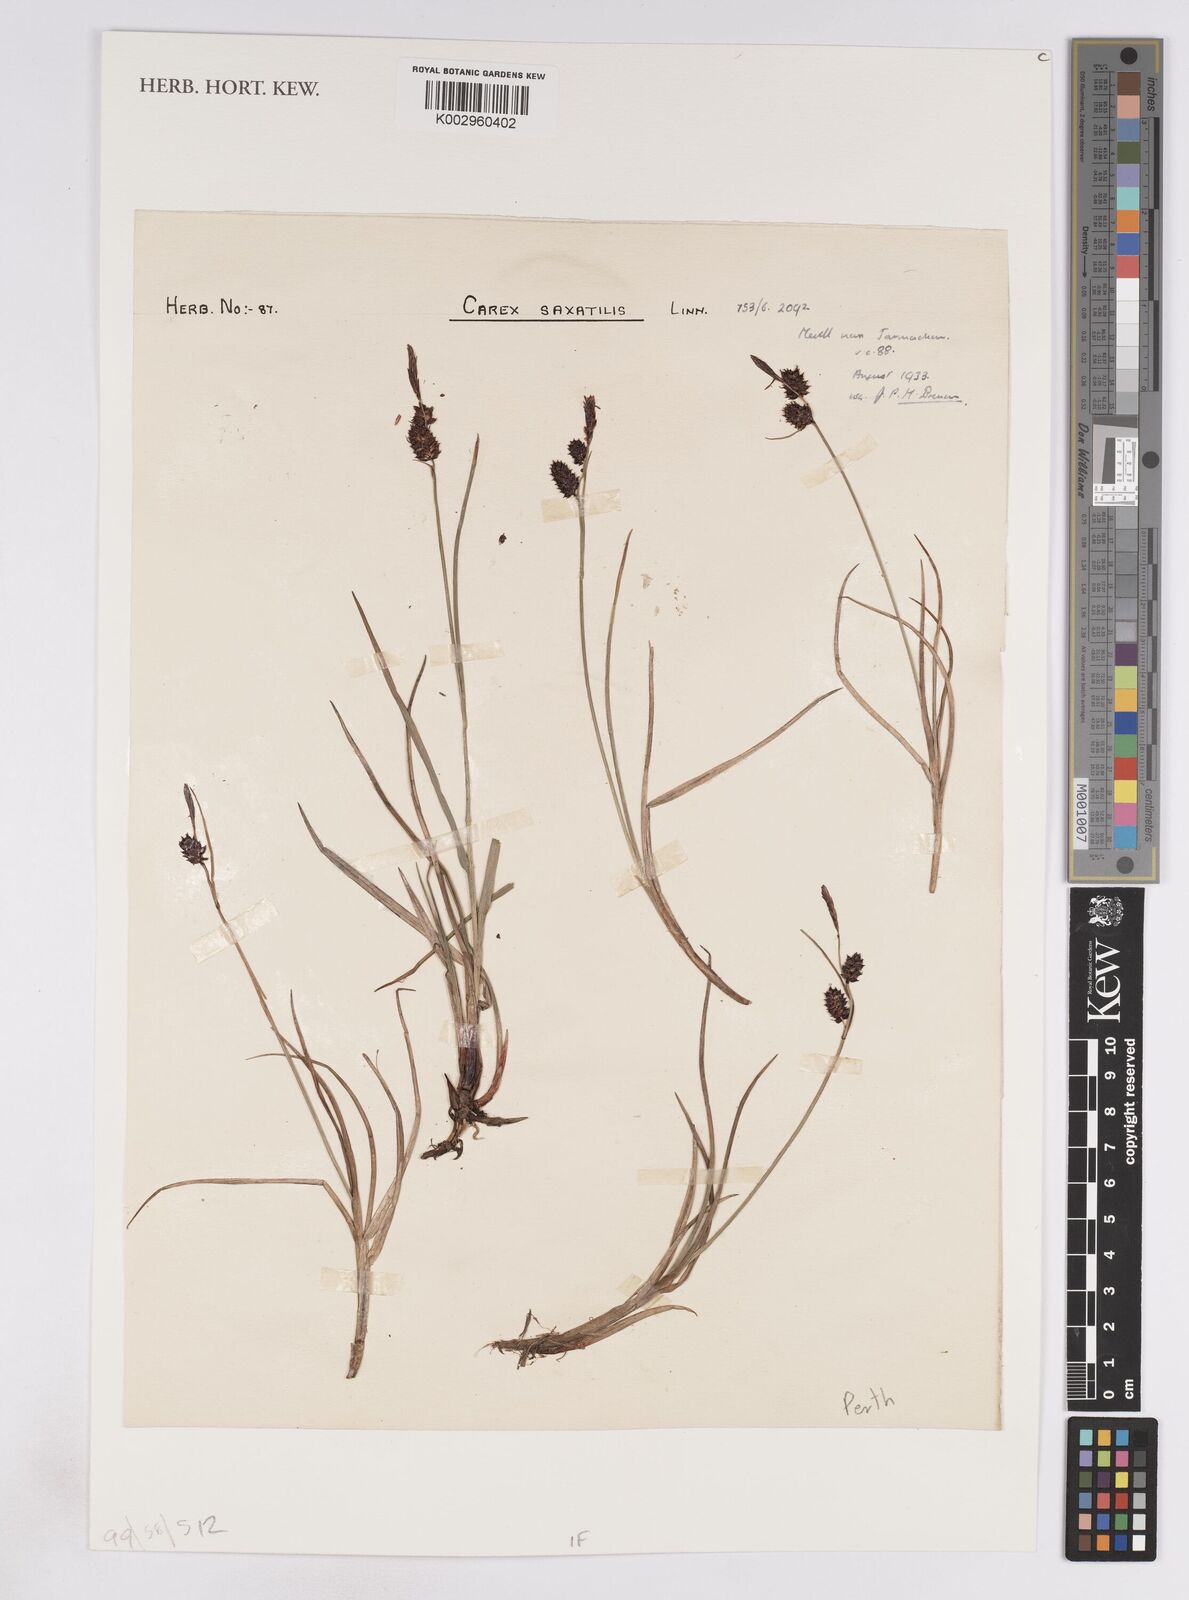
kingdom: Plantae
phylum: Tracheophyta
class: Liliopsida
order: Poales
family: Cyperaceae
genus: Carex
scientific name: Carex saxatilis
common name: Russet sedge
